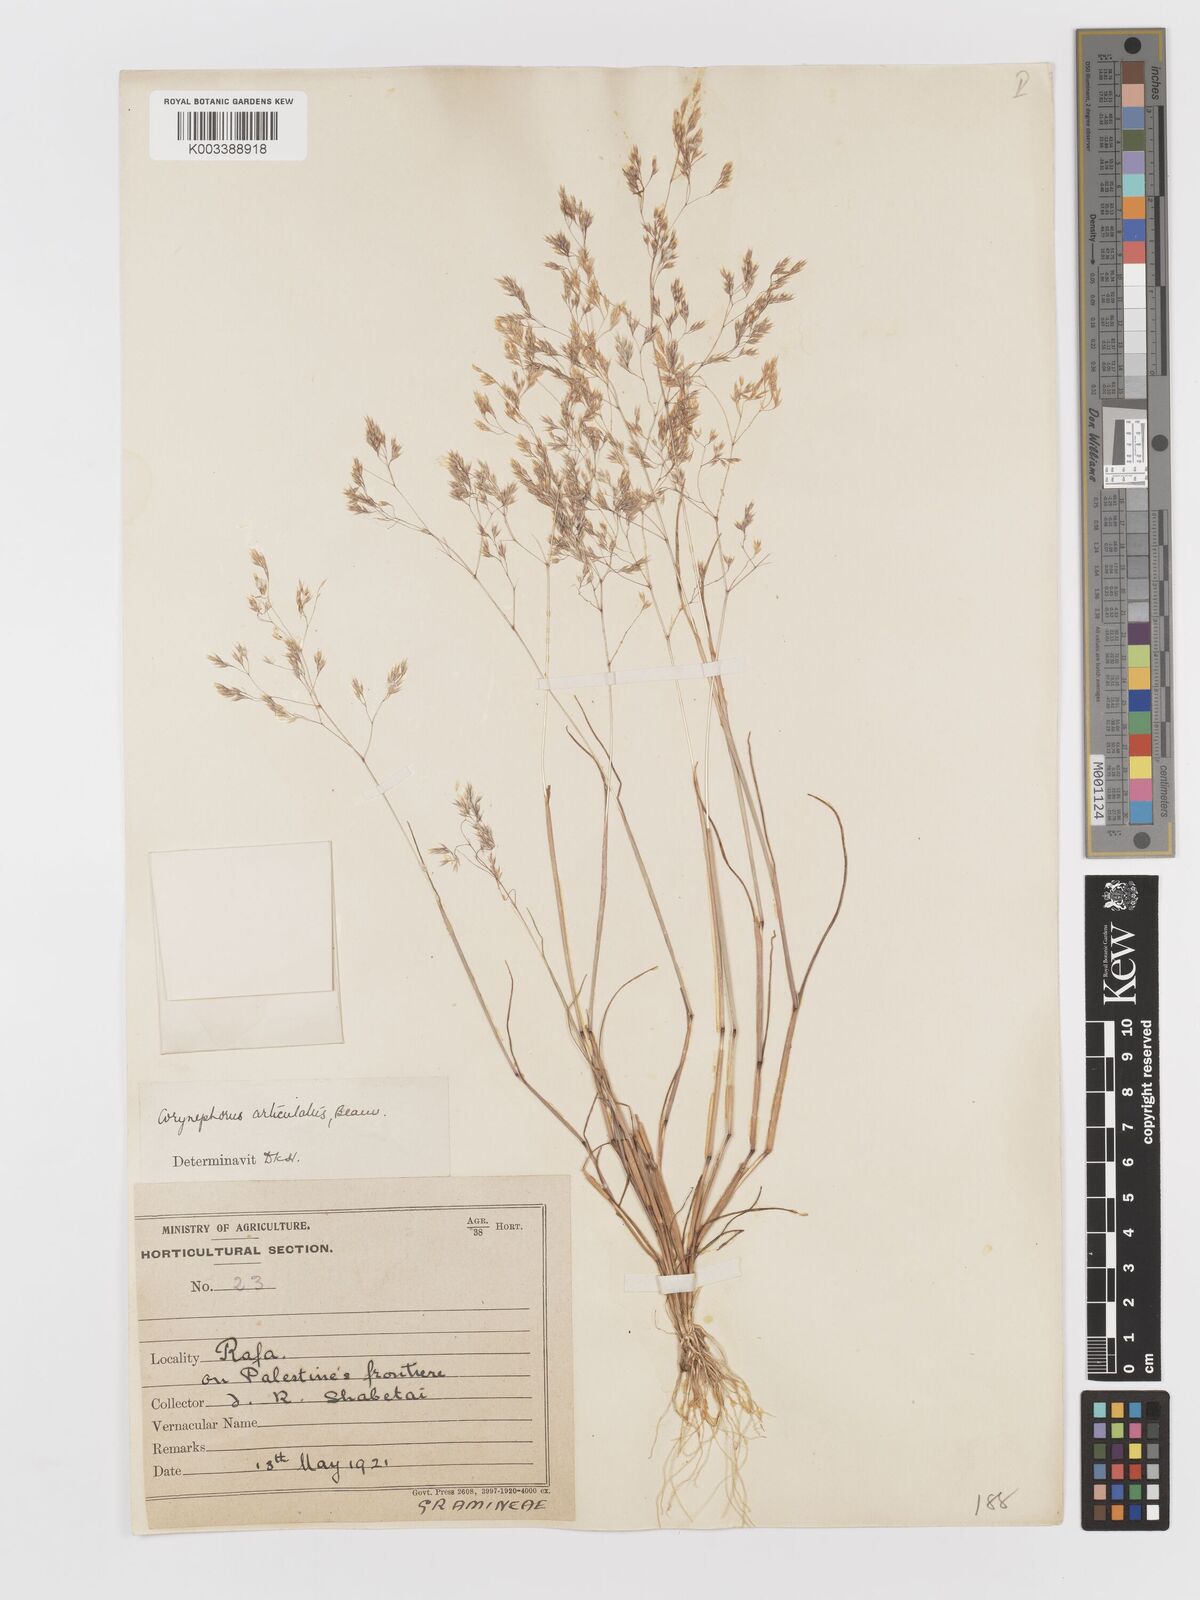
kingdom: Plantae
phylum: Tracheophyta
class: Liliopsida
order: Poales
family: Poaceae
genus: Corynephorus
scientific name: Corynephorus divaricatus
